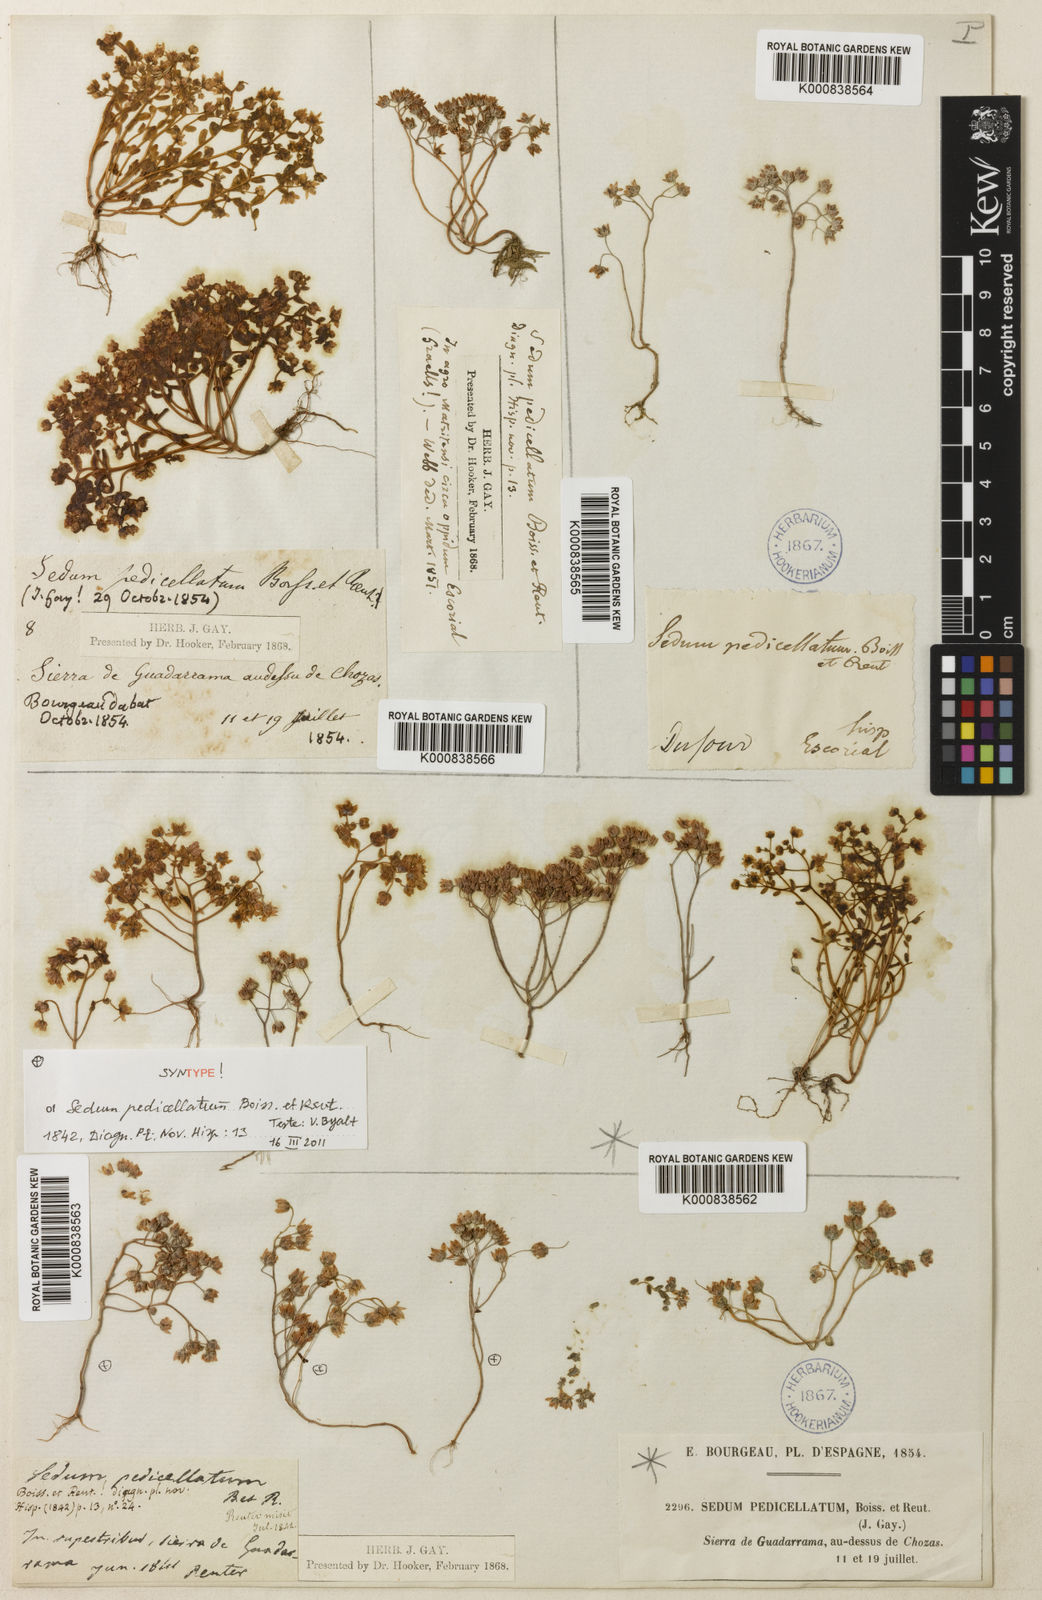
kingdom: Plantae
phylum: Tracheophyta
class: Magnoliopsida
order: Saxifragales
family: Crassulaceae
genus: Sedum
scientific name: Sedum pedicellatum
